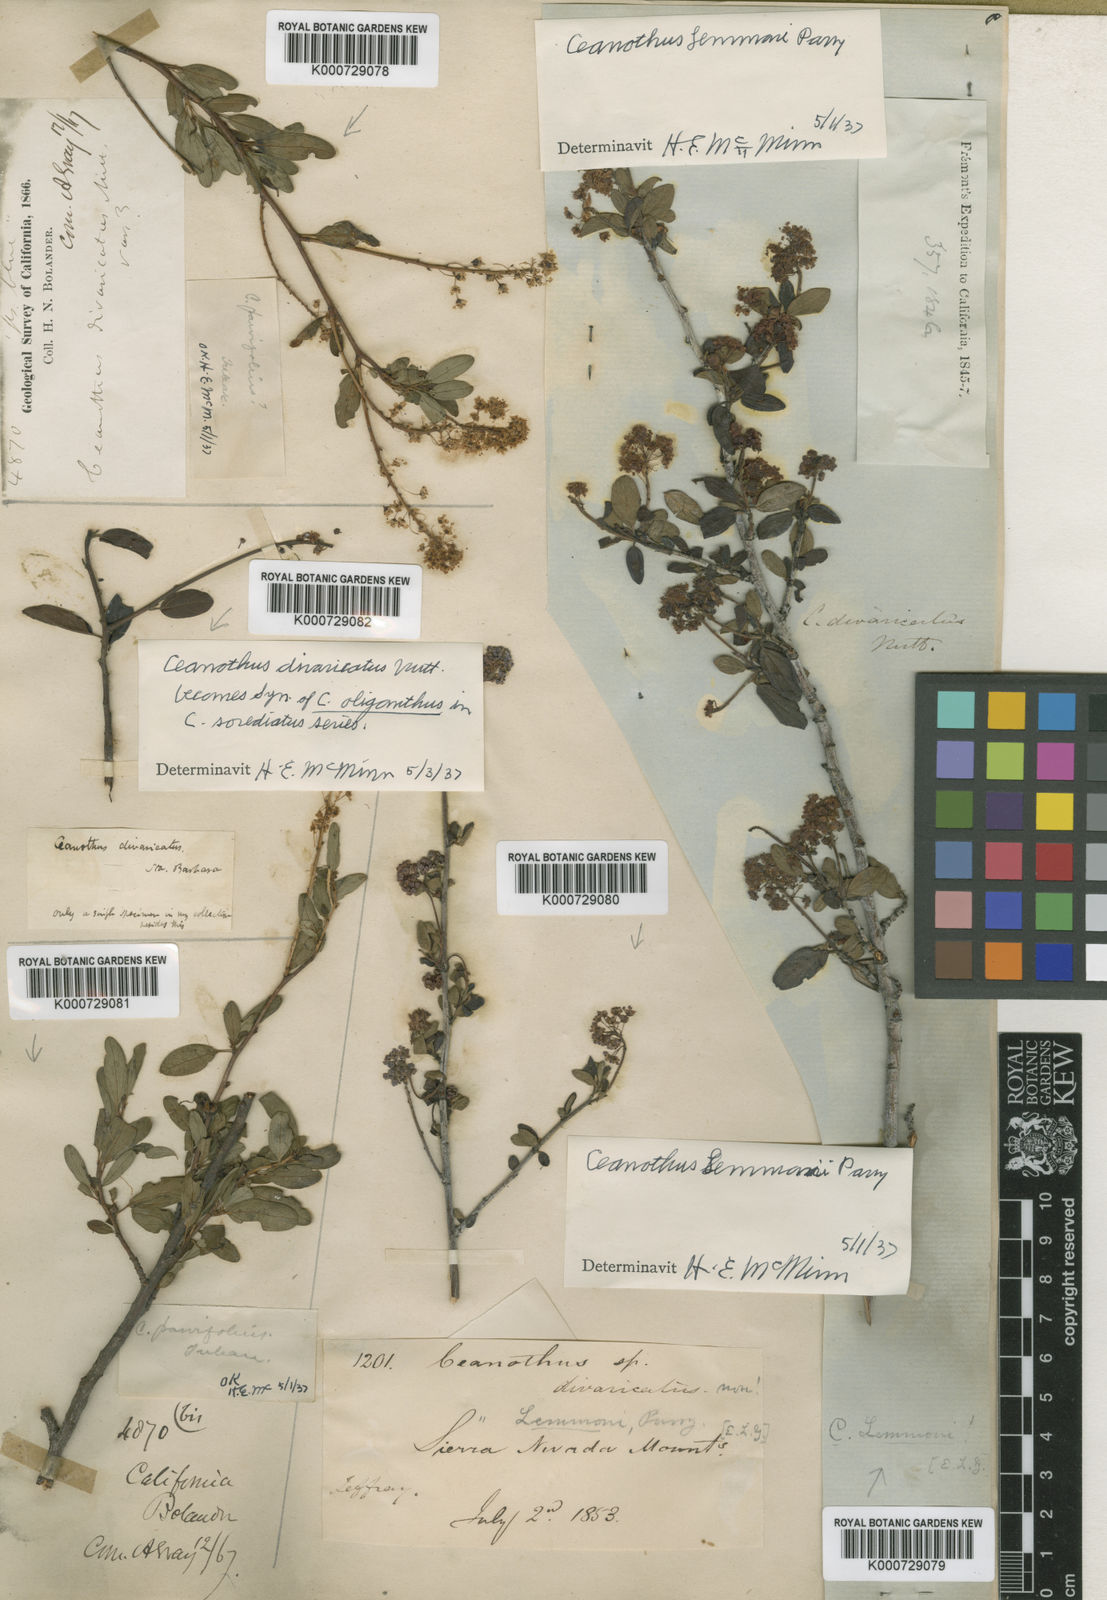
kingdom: Plantae
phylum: Tracheophyta
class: Magnoliopsida
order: Rosales
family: Rhamnaceae
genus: Ceanothus
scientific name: Ceanothus oliganthus
